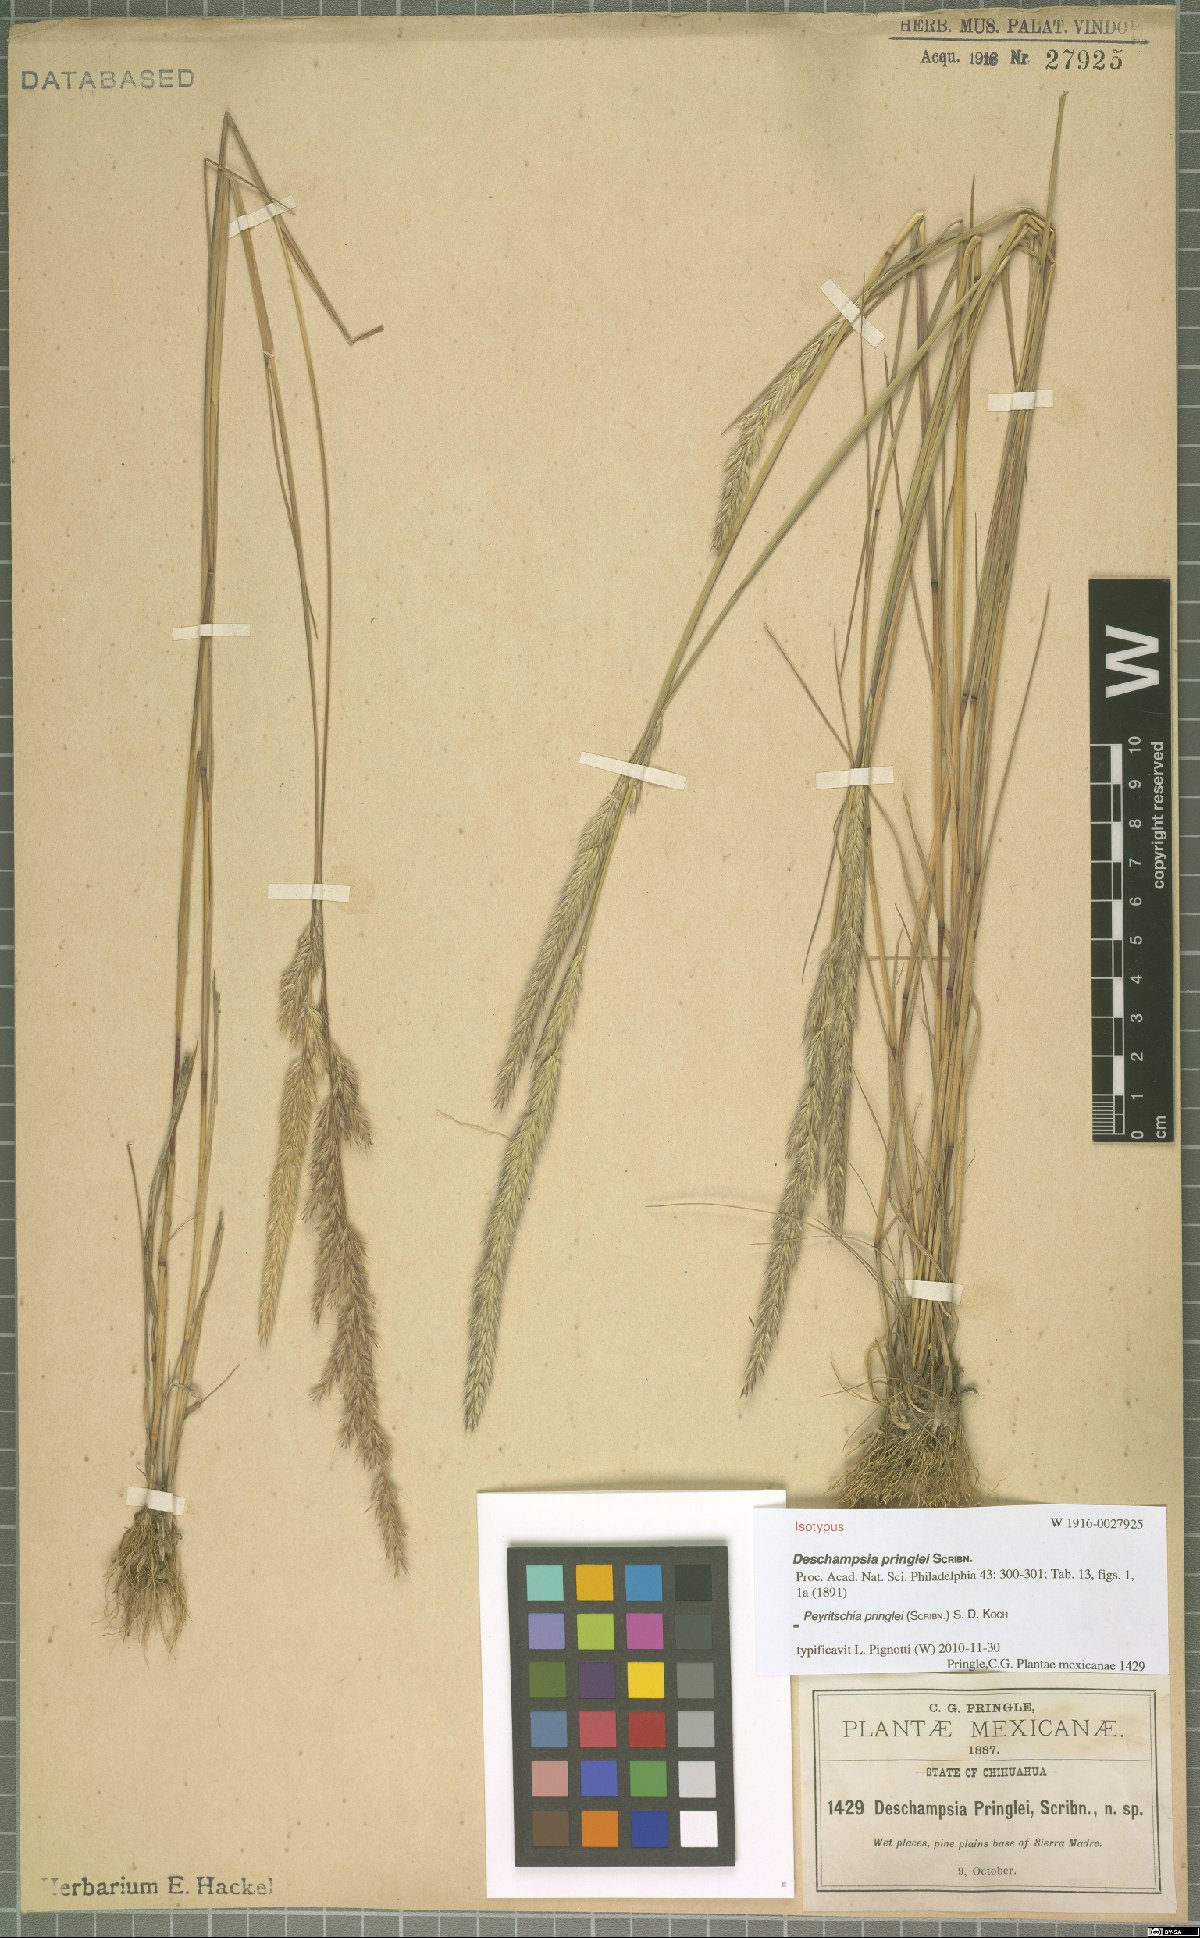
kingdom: Plantae
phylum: Tracheophyta
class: Liliopsida
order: Poales
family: Poaceae
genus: Peyritschia
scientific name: Peyritschia pringlei
